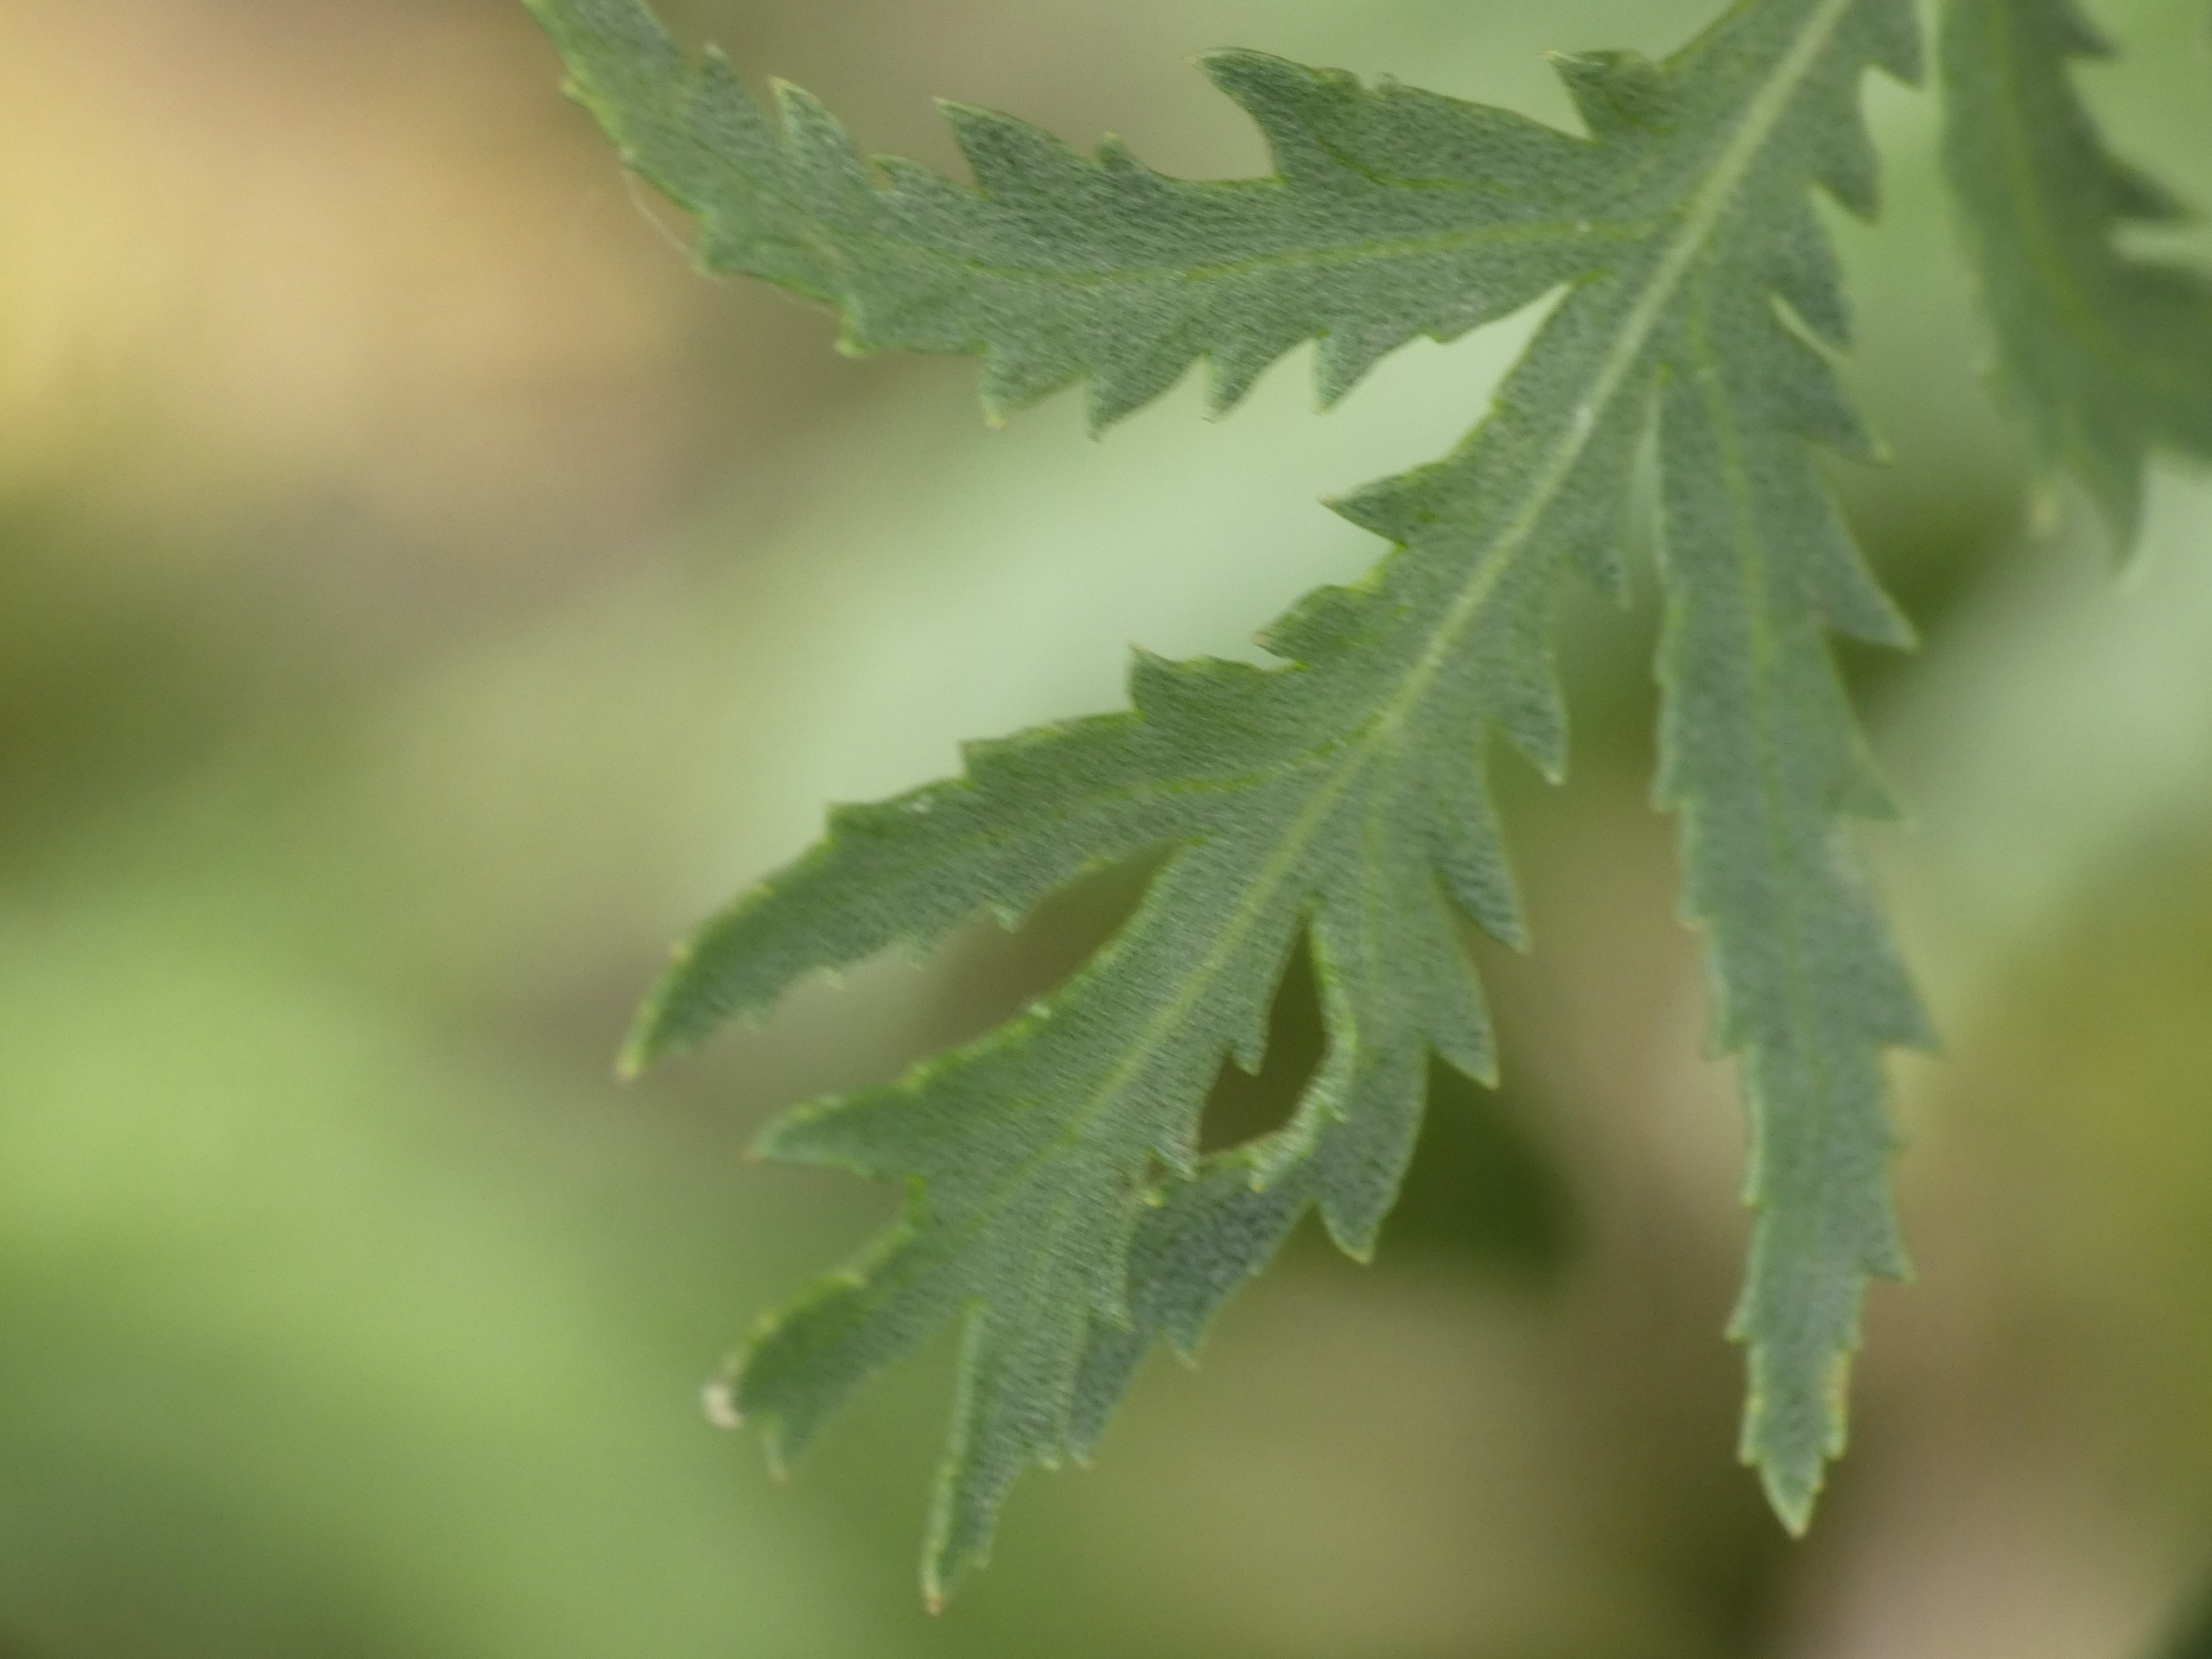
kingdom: Plantae
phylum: Tracheophyta
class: Magnoliopsida
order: Asterales
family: Asteraceae
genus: Tanacetum
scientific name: Tanacetum vulgare
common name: Rejnfan
